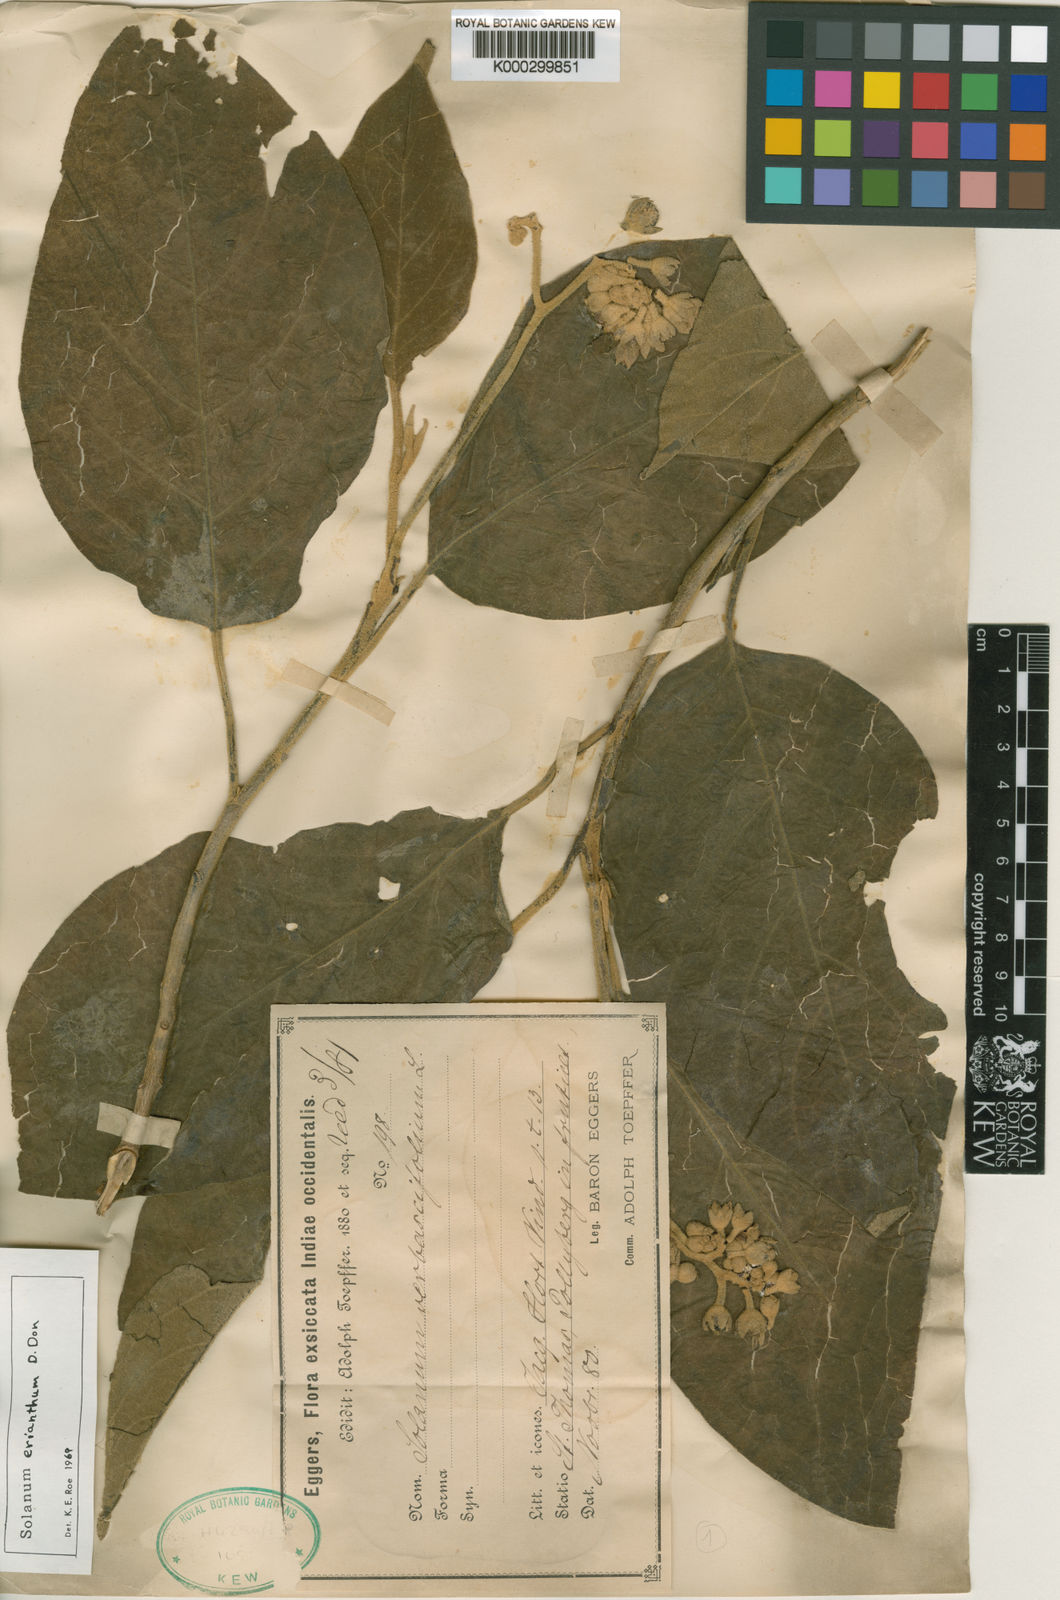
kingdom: Plantae
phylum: Tracheophyta
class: Magnoliopsida
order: Solanales
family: Solanaceae
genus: Solanum
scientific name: Solanum erianthum
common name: Tobacco-tree
